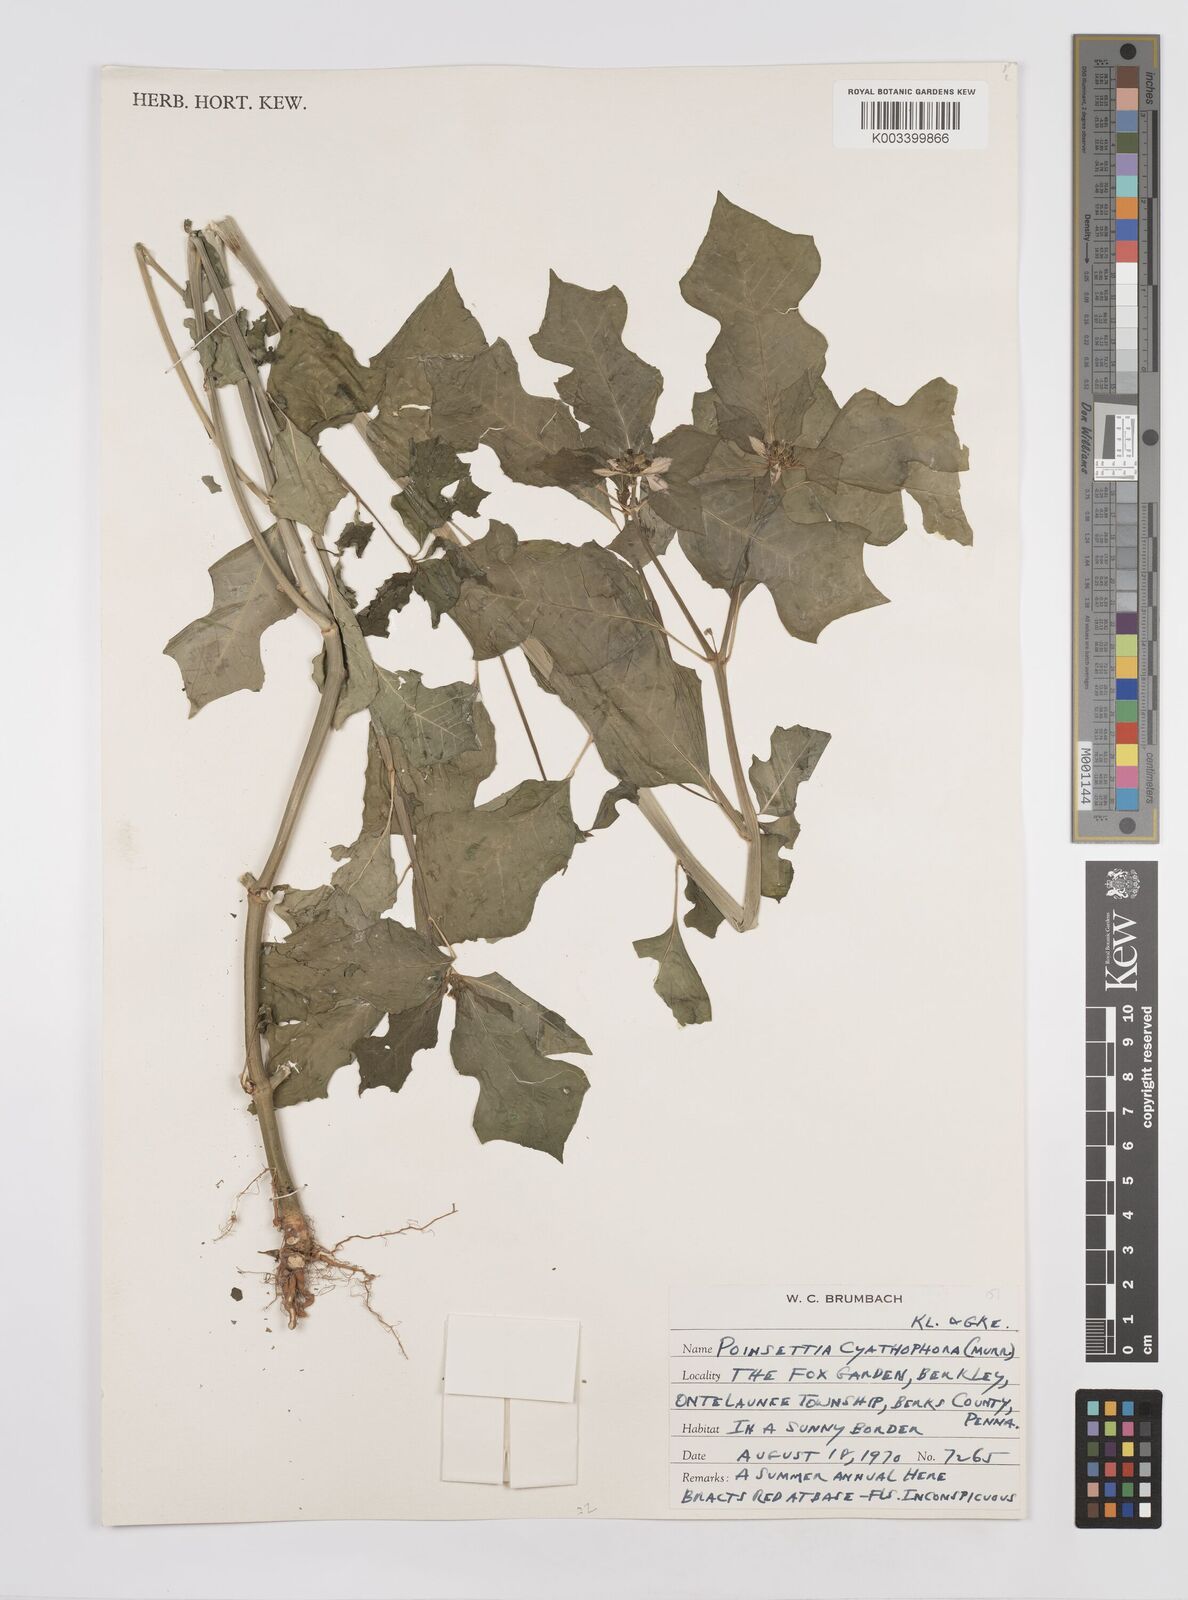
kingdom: Plantae
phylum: Tracheophyta
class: Magnoliopsida
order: Malpighiales
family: Euphorbiaceae
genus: Euphorbia
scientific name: Euphorbia heterophylla
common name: Mexican fireplant
